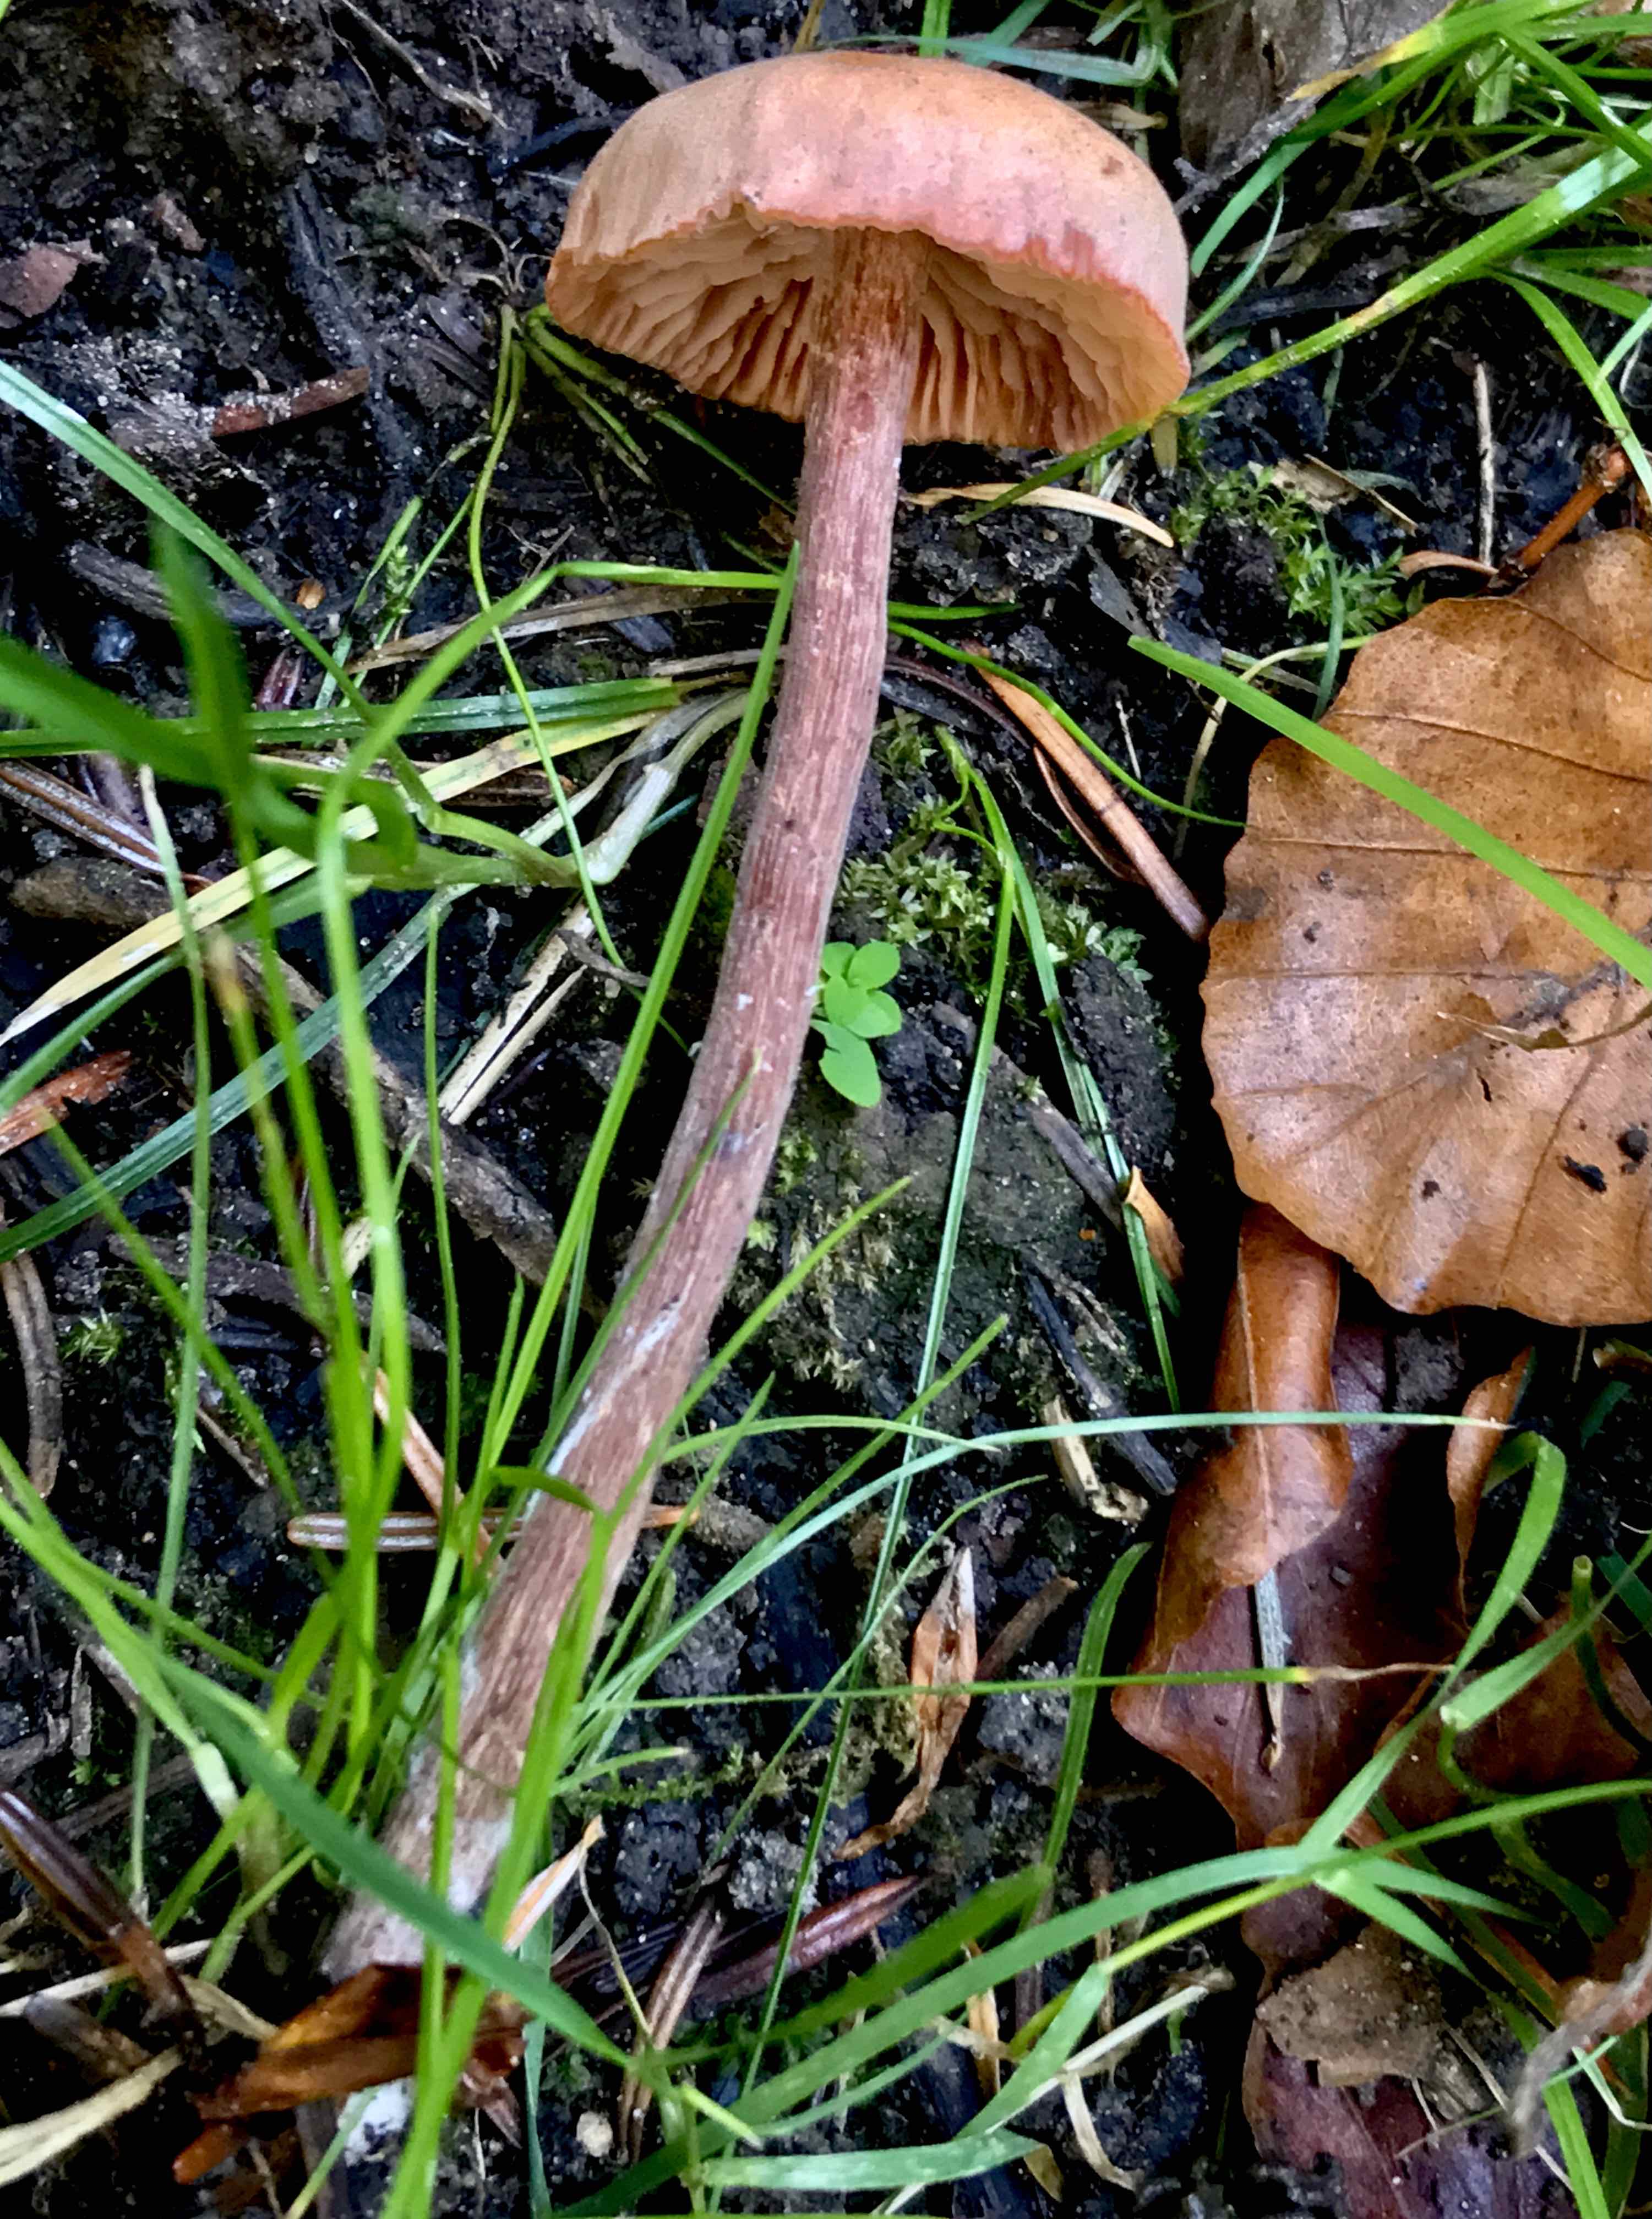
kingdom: Fungi
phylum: Basidiomycota
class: Agaricomycetes
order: Agaricales
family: Hydnangiaceae
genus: Laccaria
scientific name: Laccaria laccata
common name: rød ametysthat
